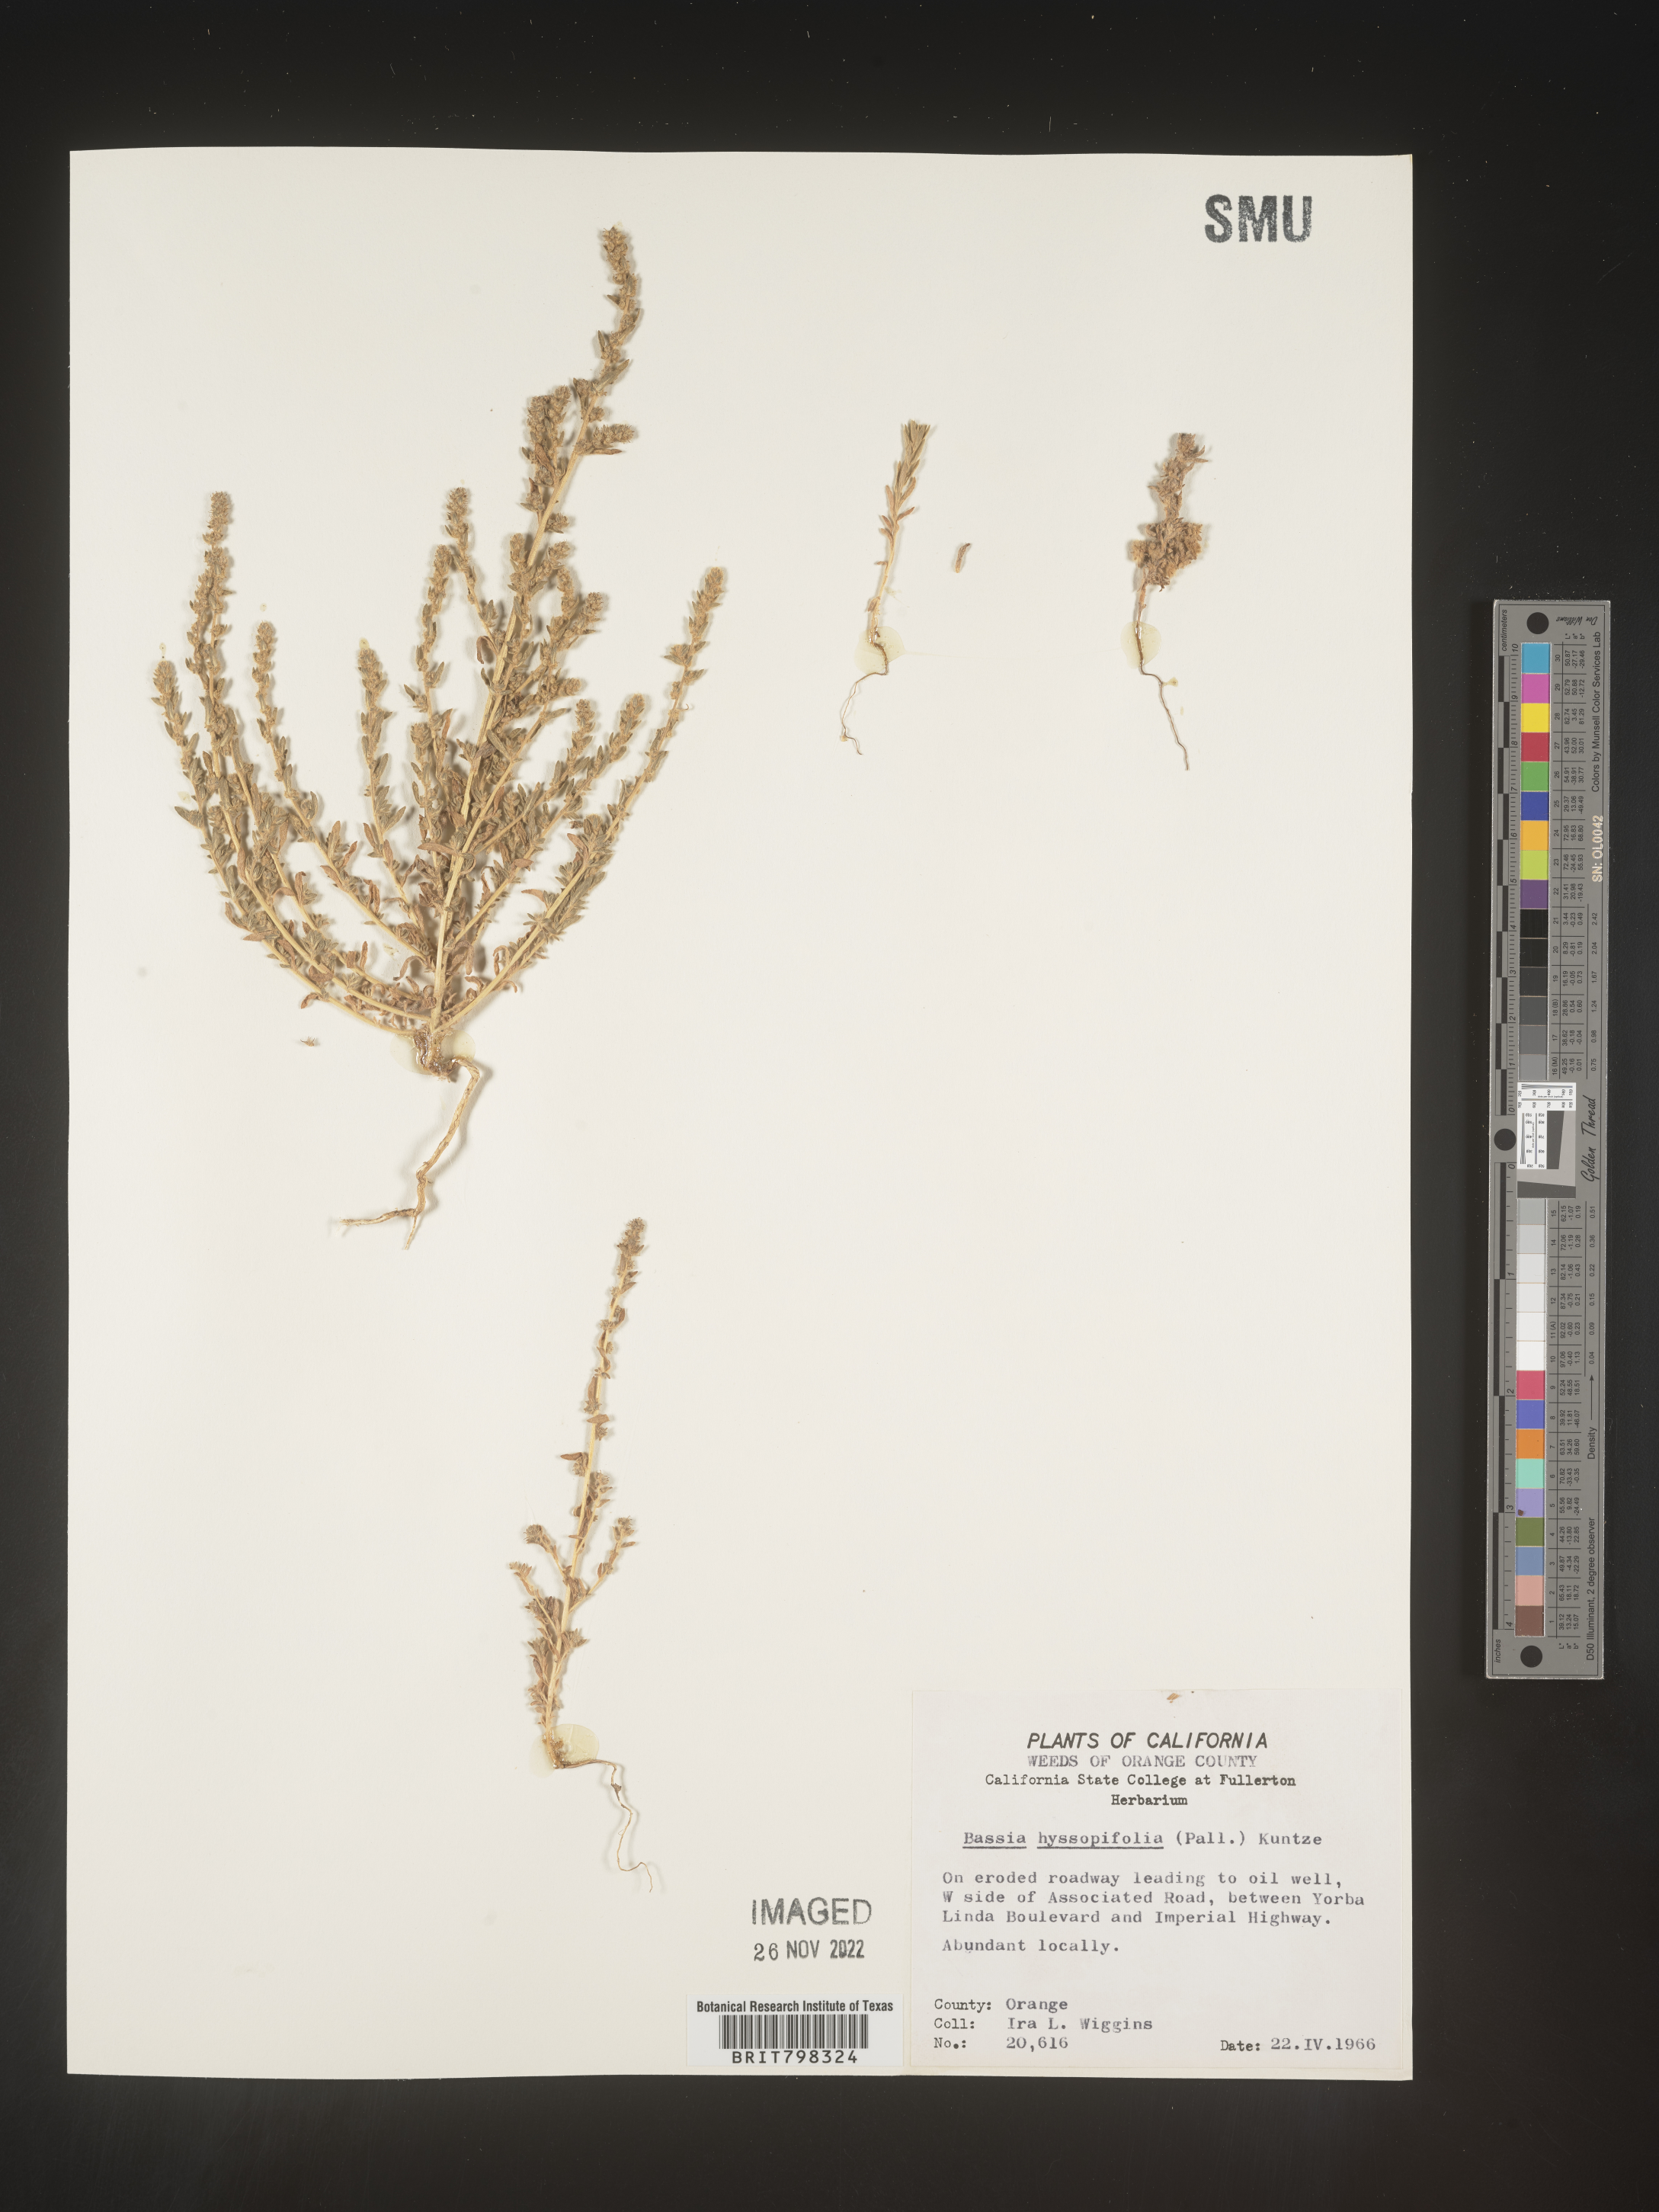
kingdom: Plantae
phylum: Tracheophyta
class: Magnoliopsida
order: Caryophyllales
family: Amaranthaceae
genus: Bassia
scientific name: Bassia hyssopifolia
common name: Fivehorn smotherweed
